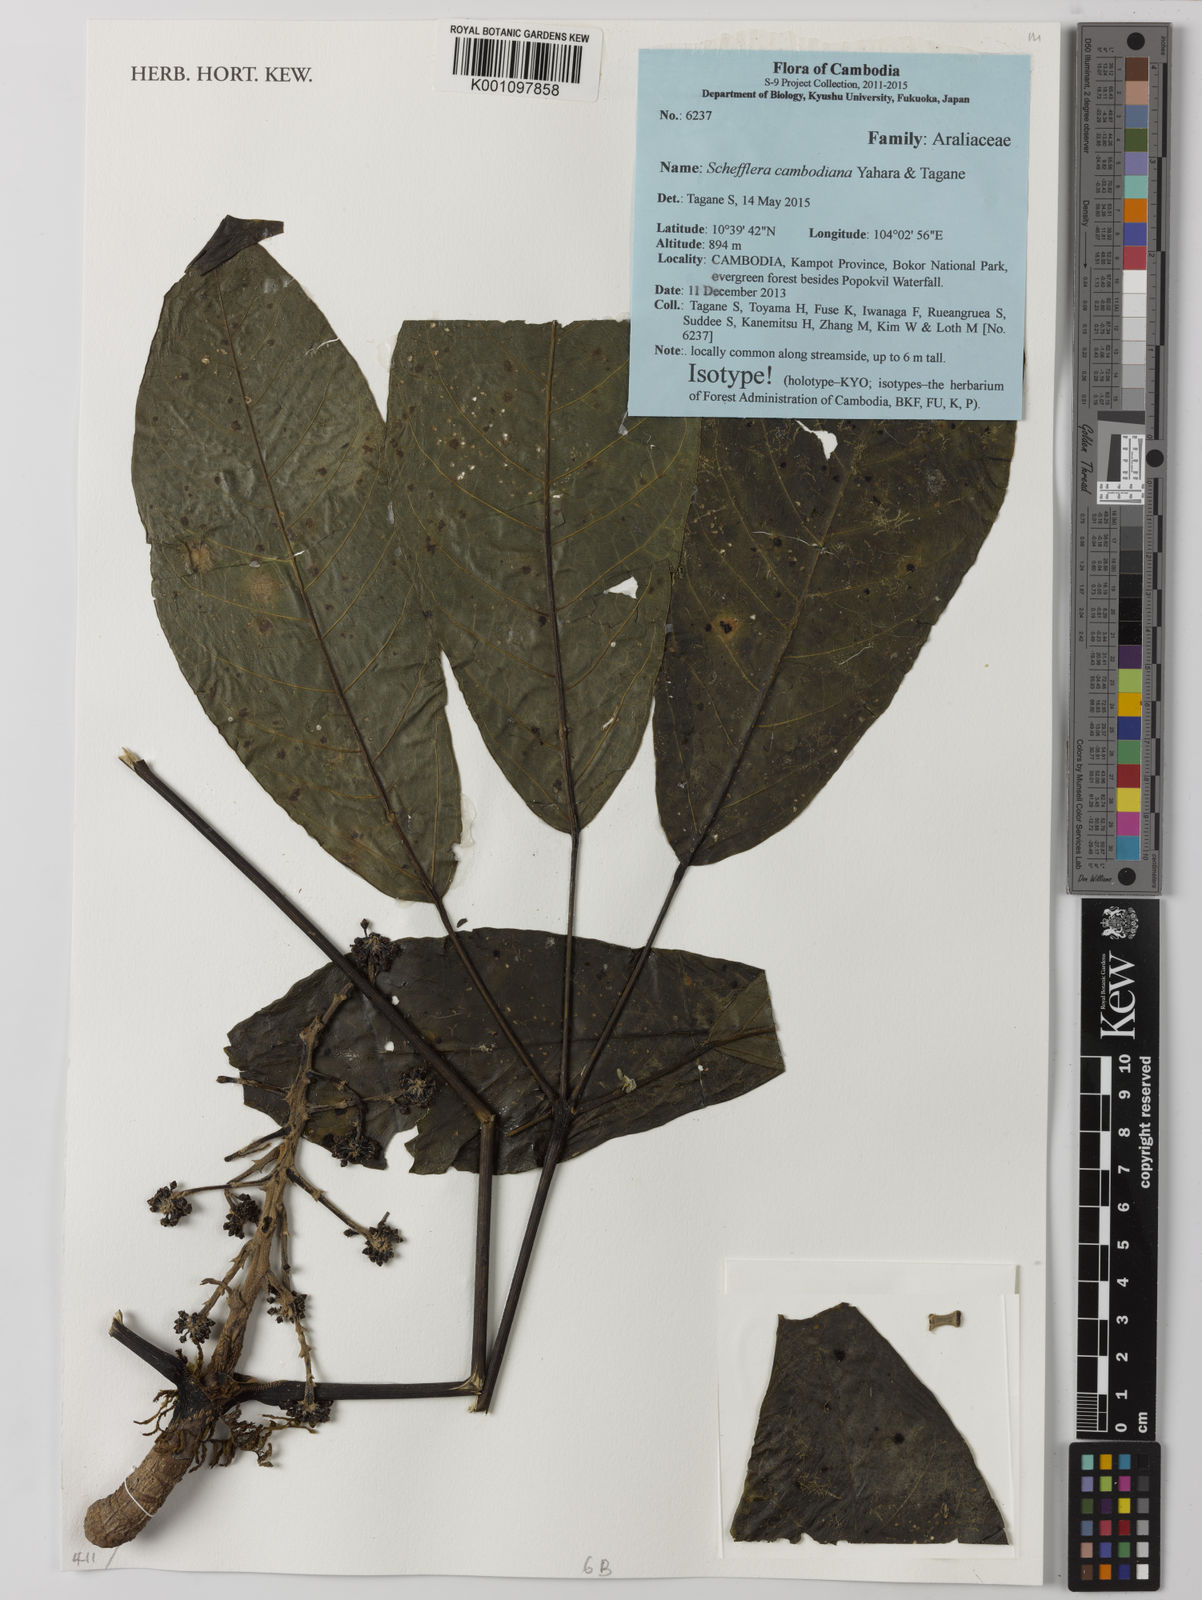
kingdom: Plantae
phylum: Tracheophyta
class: Magnoliopsida
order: Apiales
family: Araliaceae
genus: Heptapleurum
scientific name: Heptapleurum cambodianum
